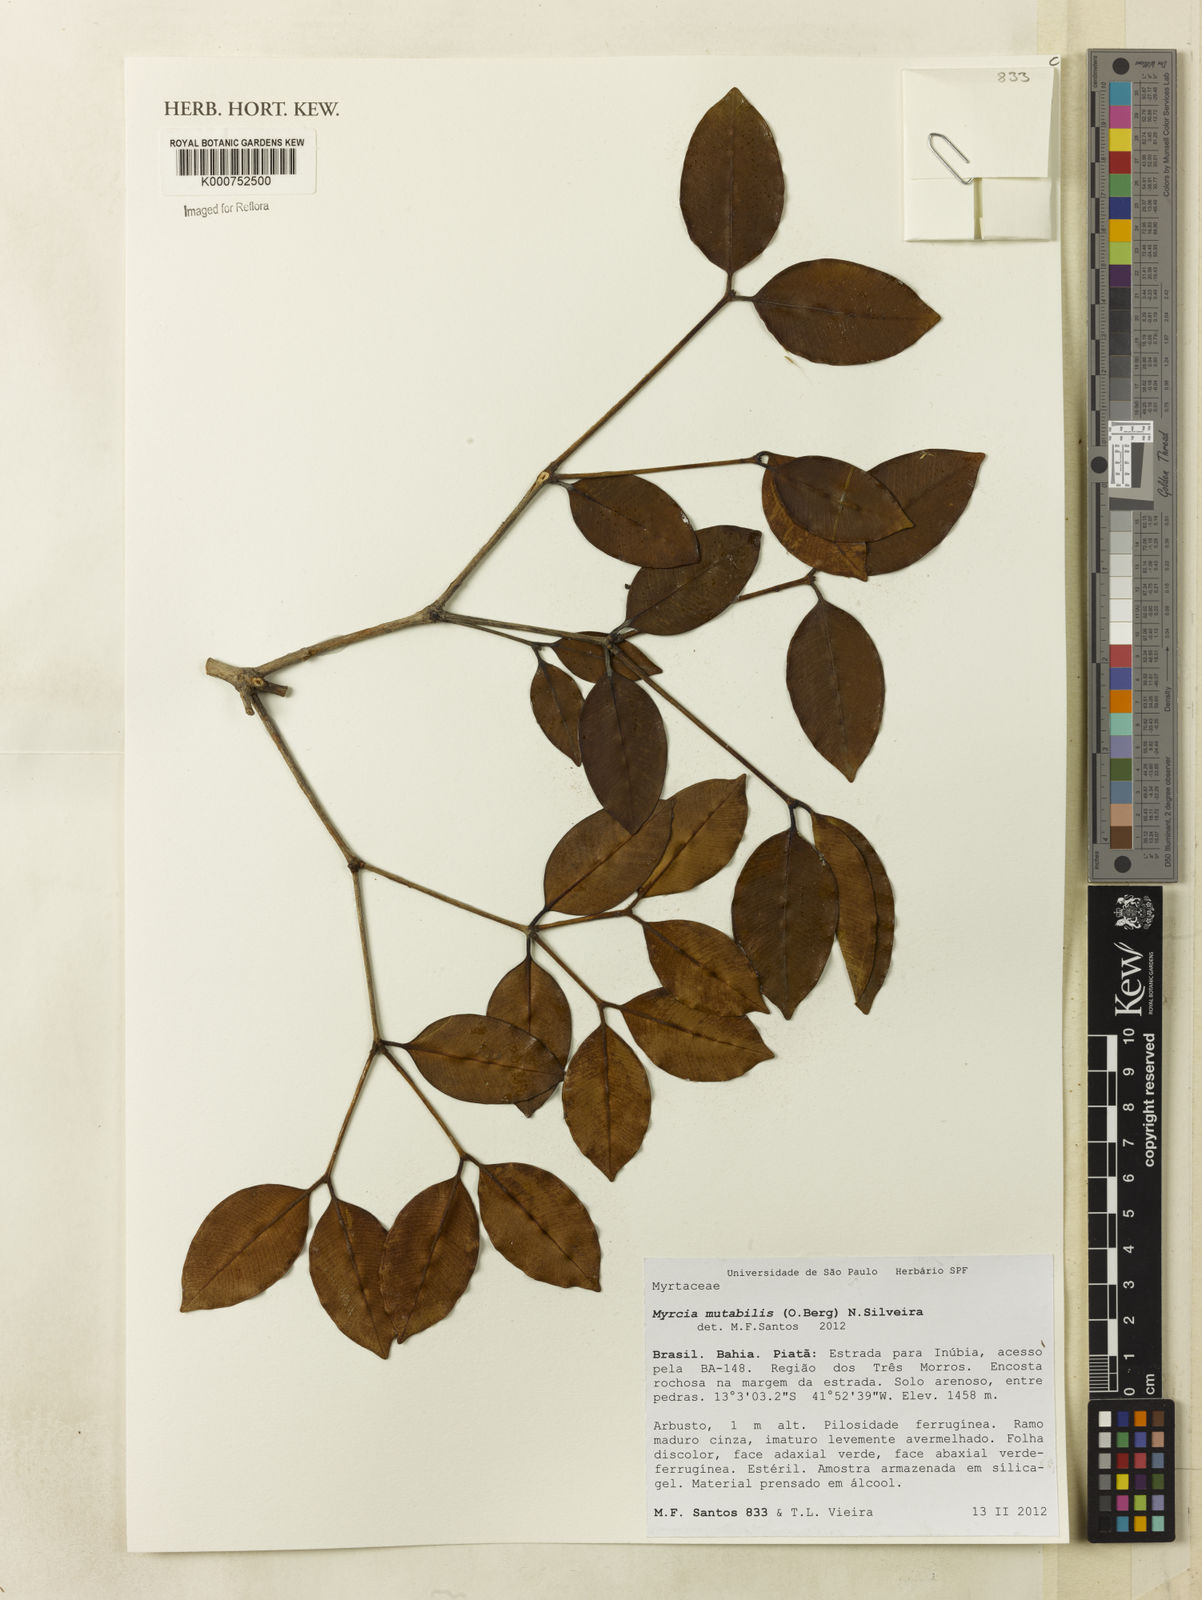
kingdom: Plantae
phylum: Tracheophyta
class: Magnoliopsida
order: Myrtales
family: Myrtaceae
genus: Myrcia
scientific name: Myrcia mutabilis
